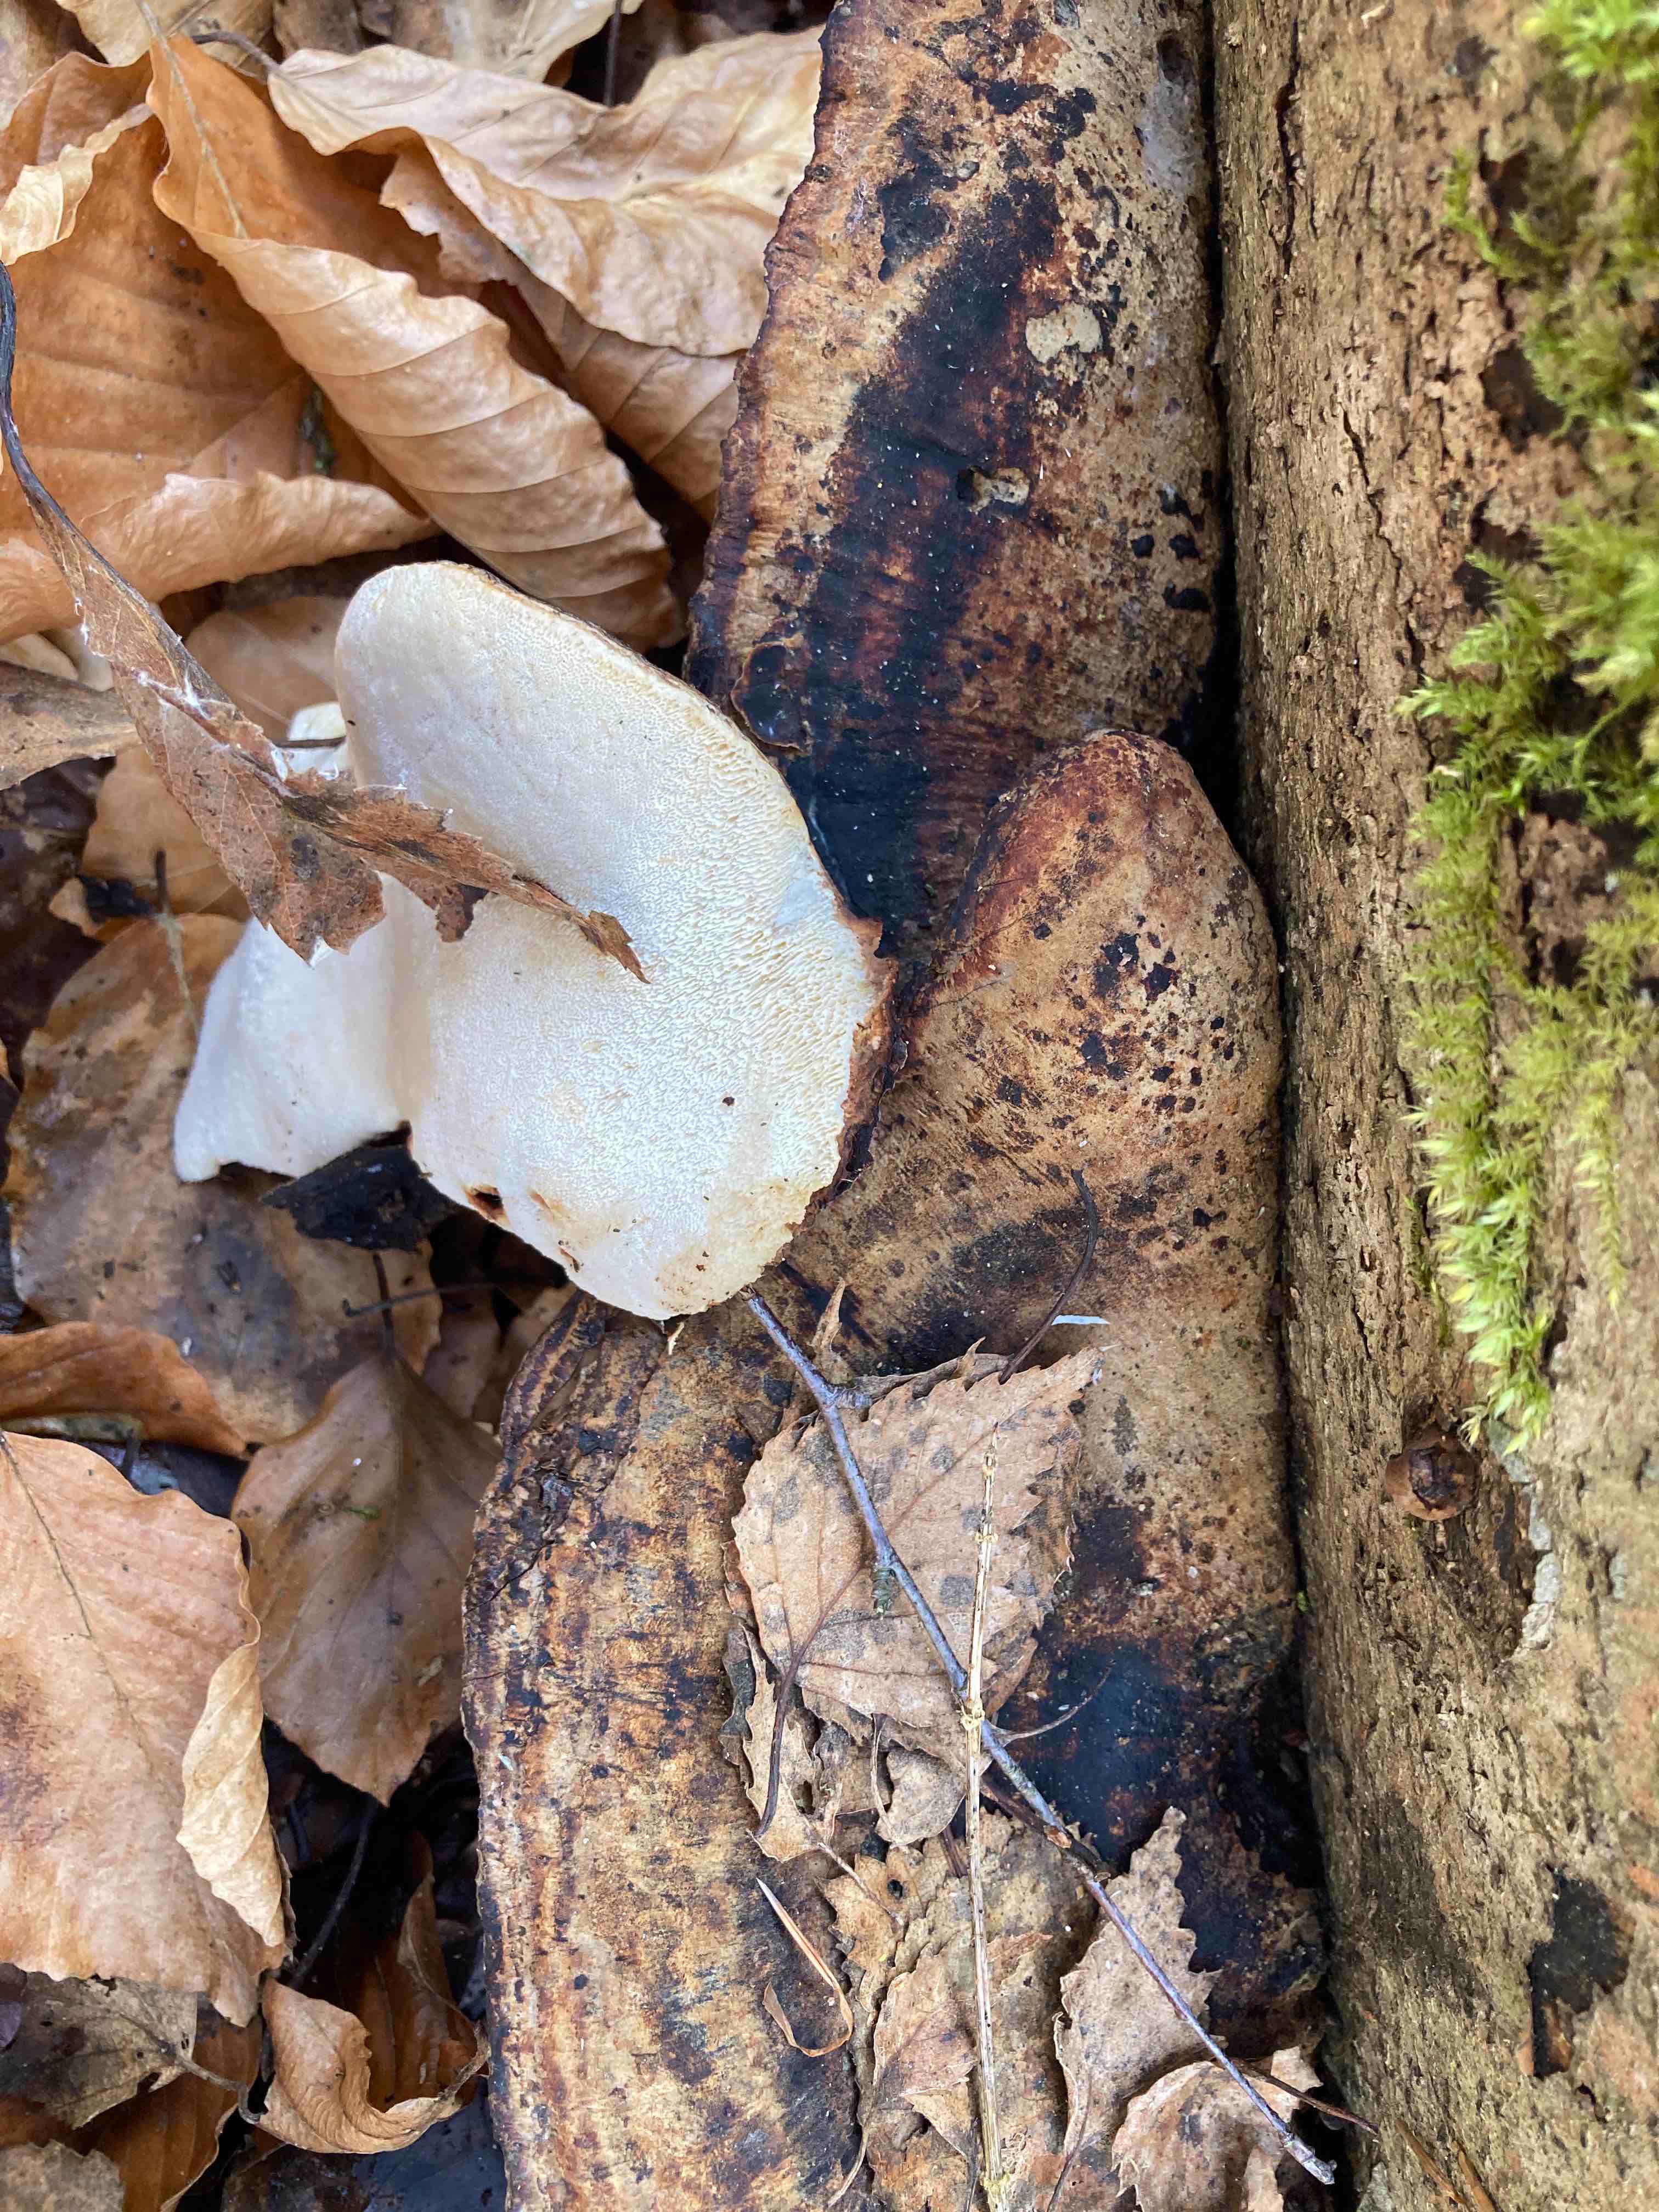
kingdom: Fungi
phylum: Basidiomycota
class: Agaricomycetes
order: Polyporales
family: Ischnodermataceae
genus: Ischnoderma
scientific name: Ischnoderma resinosum
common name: løv-tjæreporesvamp
